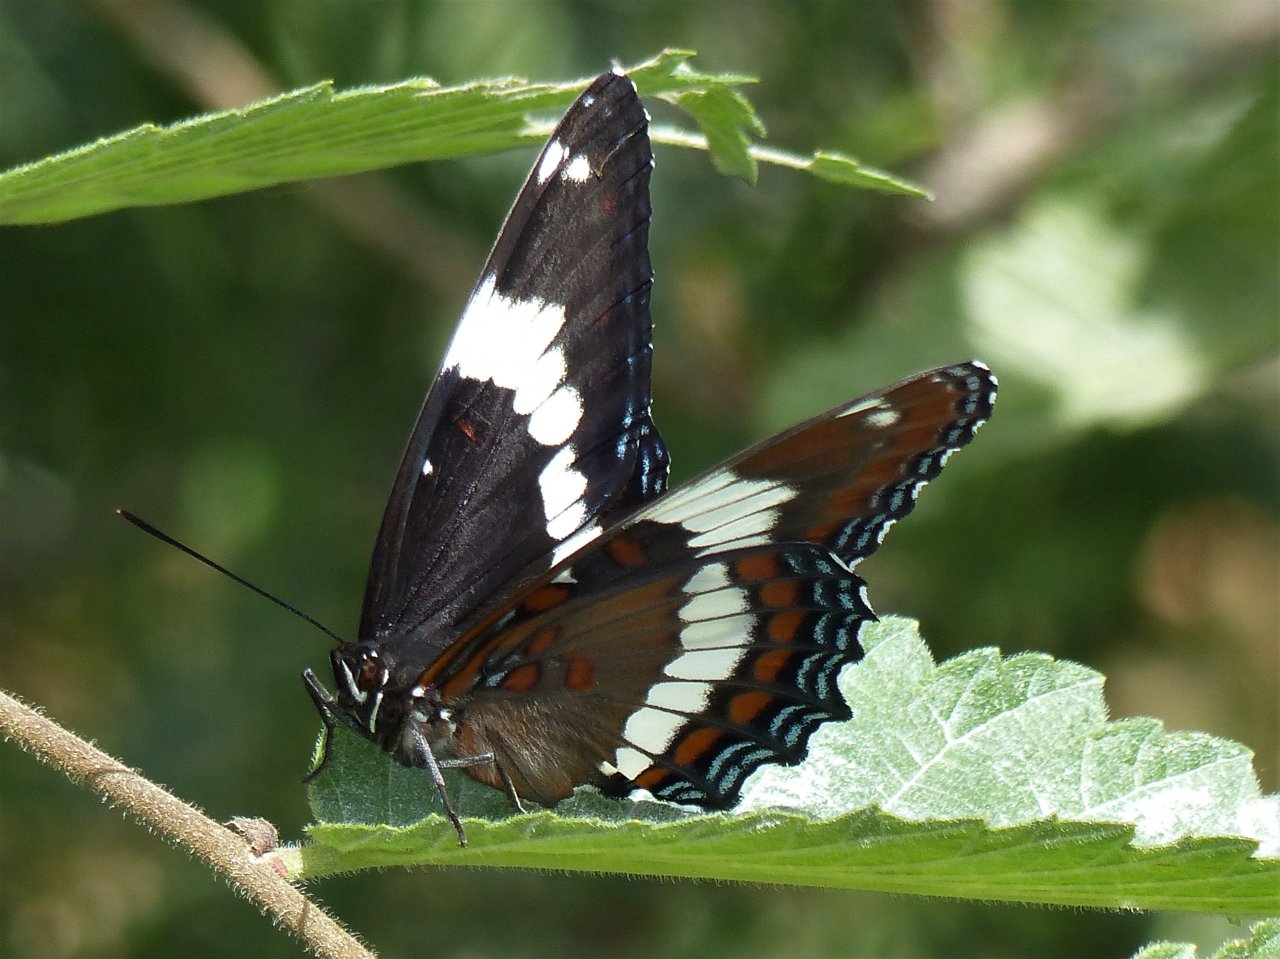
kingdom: Animalia
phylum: Arthropoda
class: Insecta
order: Lepidoptera
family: Nymphalidae
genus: Limenitis
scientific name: Limenitis arthemis
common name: Red-spotted Admiral
